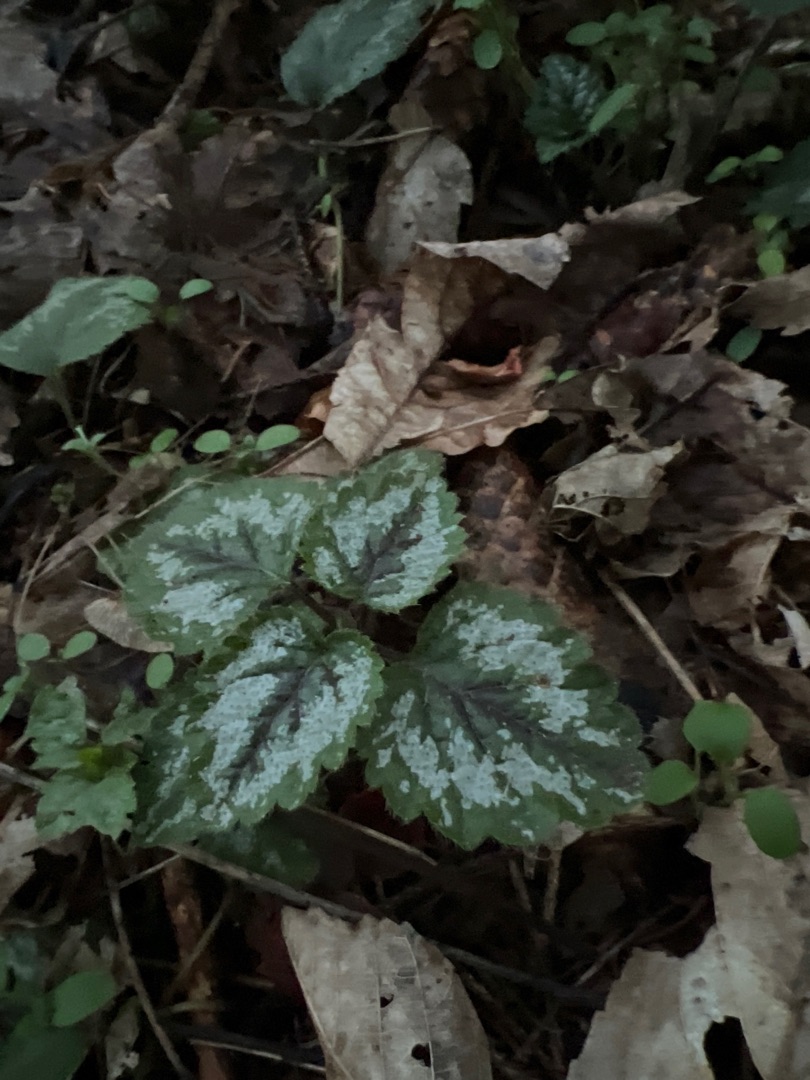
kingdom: Plantae
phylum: Tracheophyta
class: Magnoliopsida
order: Lamiales
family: Lamiaceae
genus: Lamium
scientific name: Lamium galeobdolon
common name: Have-guldnælde
